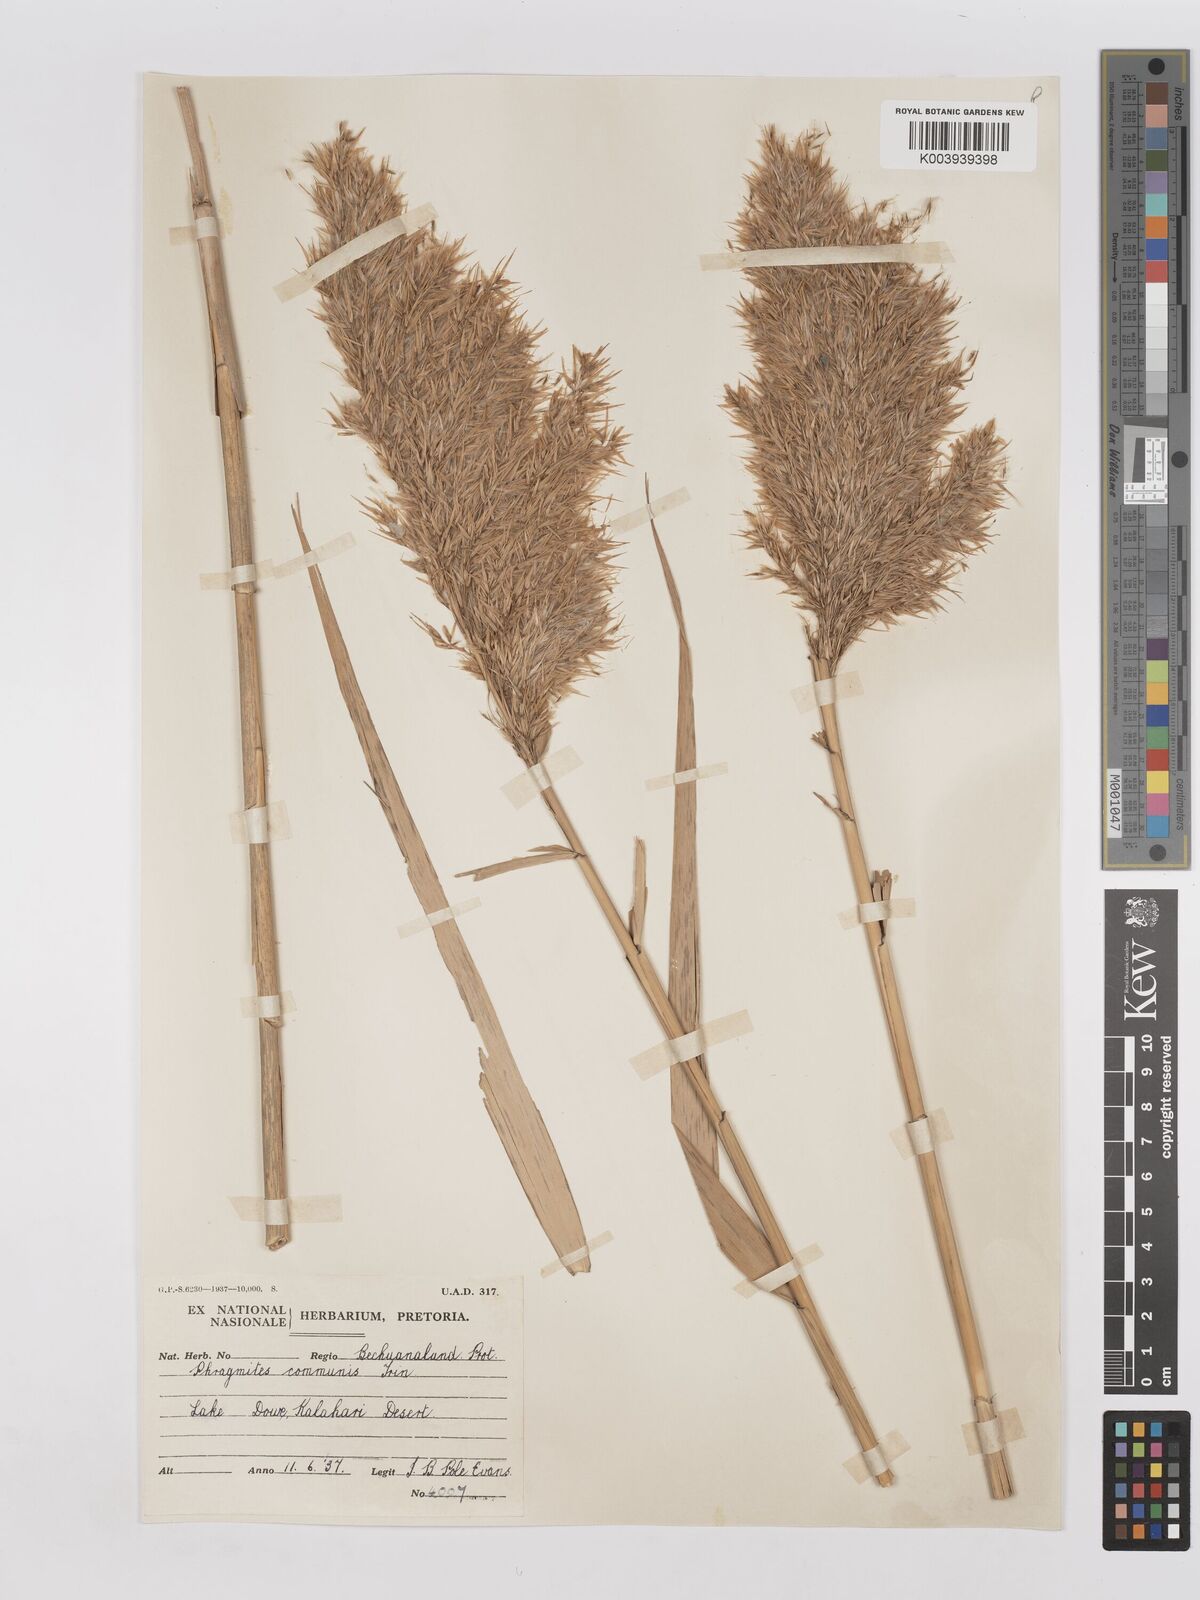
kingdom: Plantae
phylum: Tracheophyta
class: Liliopsida
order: Poales
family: Poaceae
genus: Phragmites
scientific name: Phragmites australis
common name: Common reed
